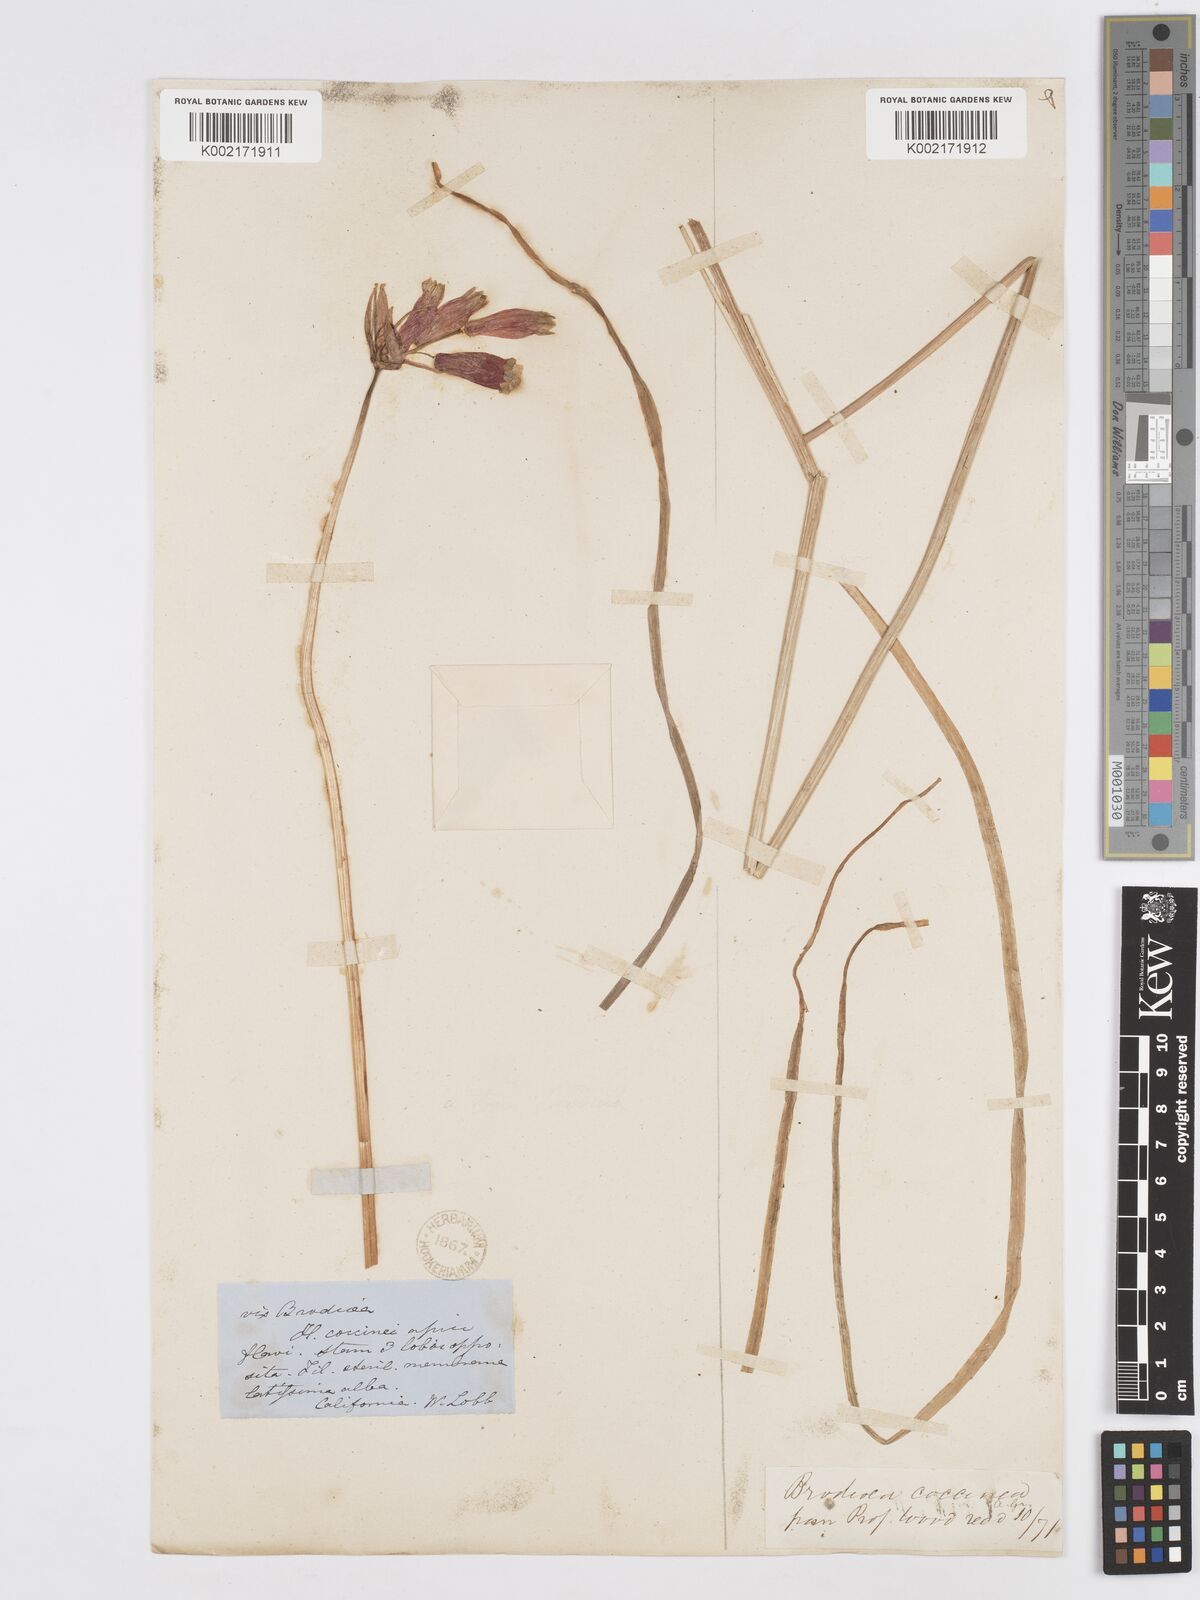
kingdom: Plantae
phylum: Tracheophyta
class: Liliopsida
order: Asparagales
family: Asparagaceae
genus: Dichelostemma
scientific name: Dichelostemma ida-maia
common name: Firecracker-flower
